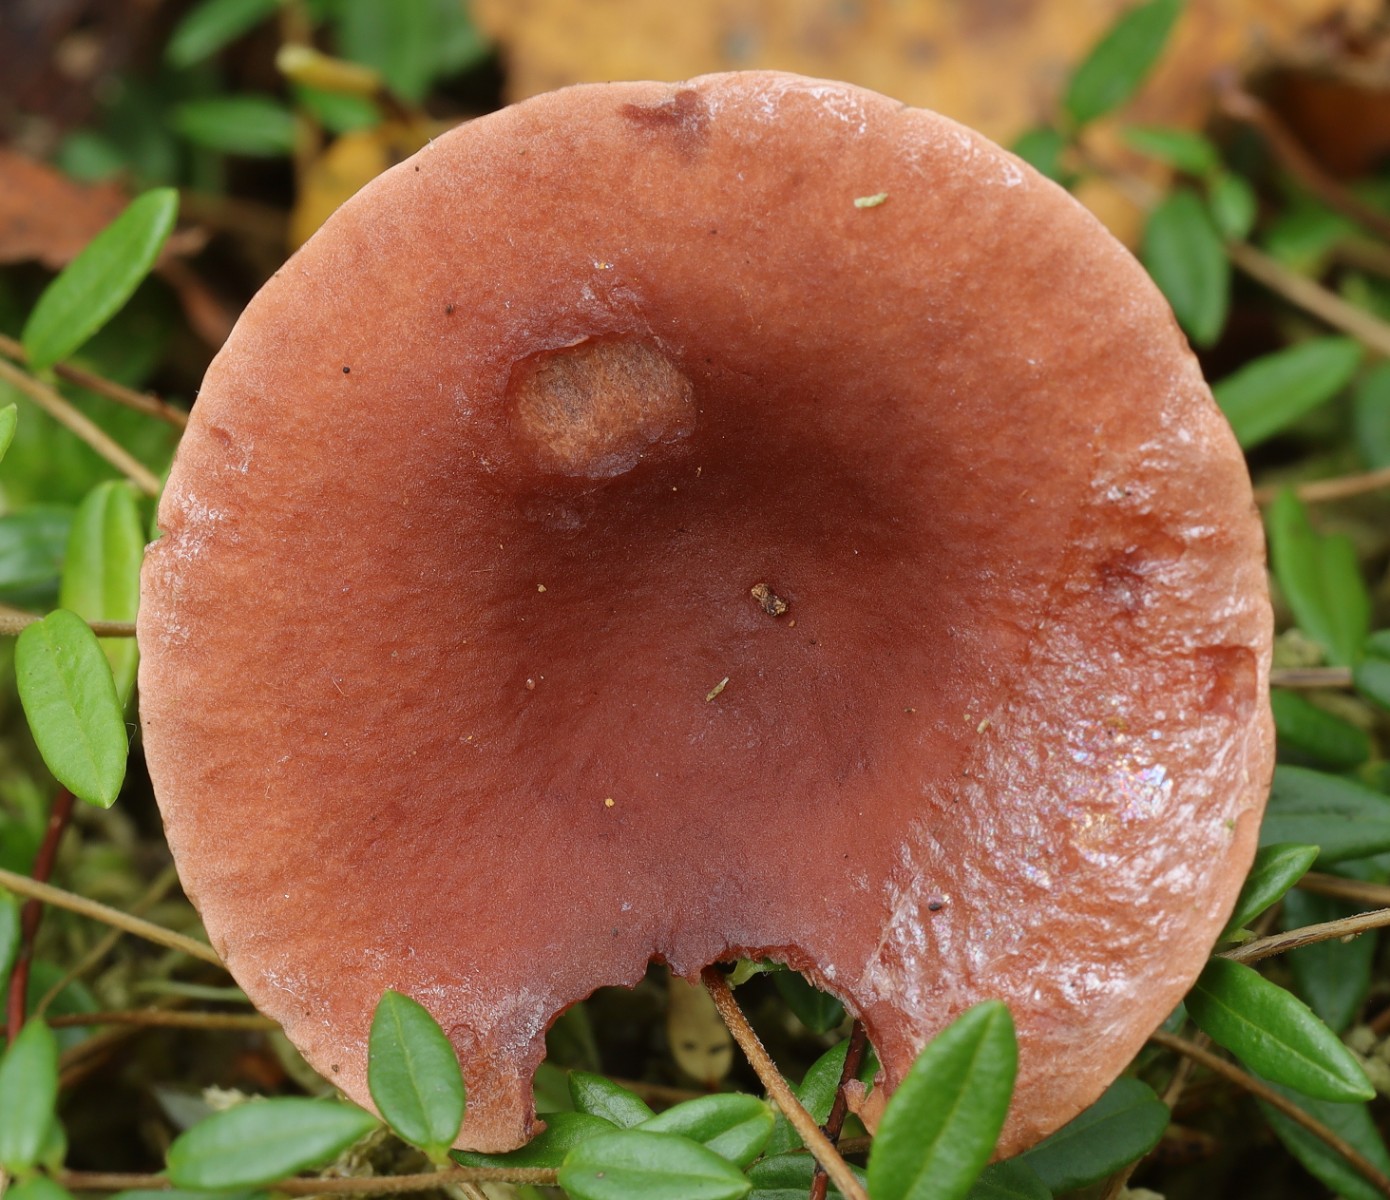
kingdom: Fungi
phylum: Basidiomycota
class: Agaricomycetes
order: Russulales
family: Russulaceae
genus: Lactarius
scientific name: Lactarius camphoratus
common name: kamfer-mælkehat
